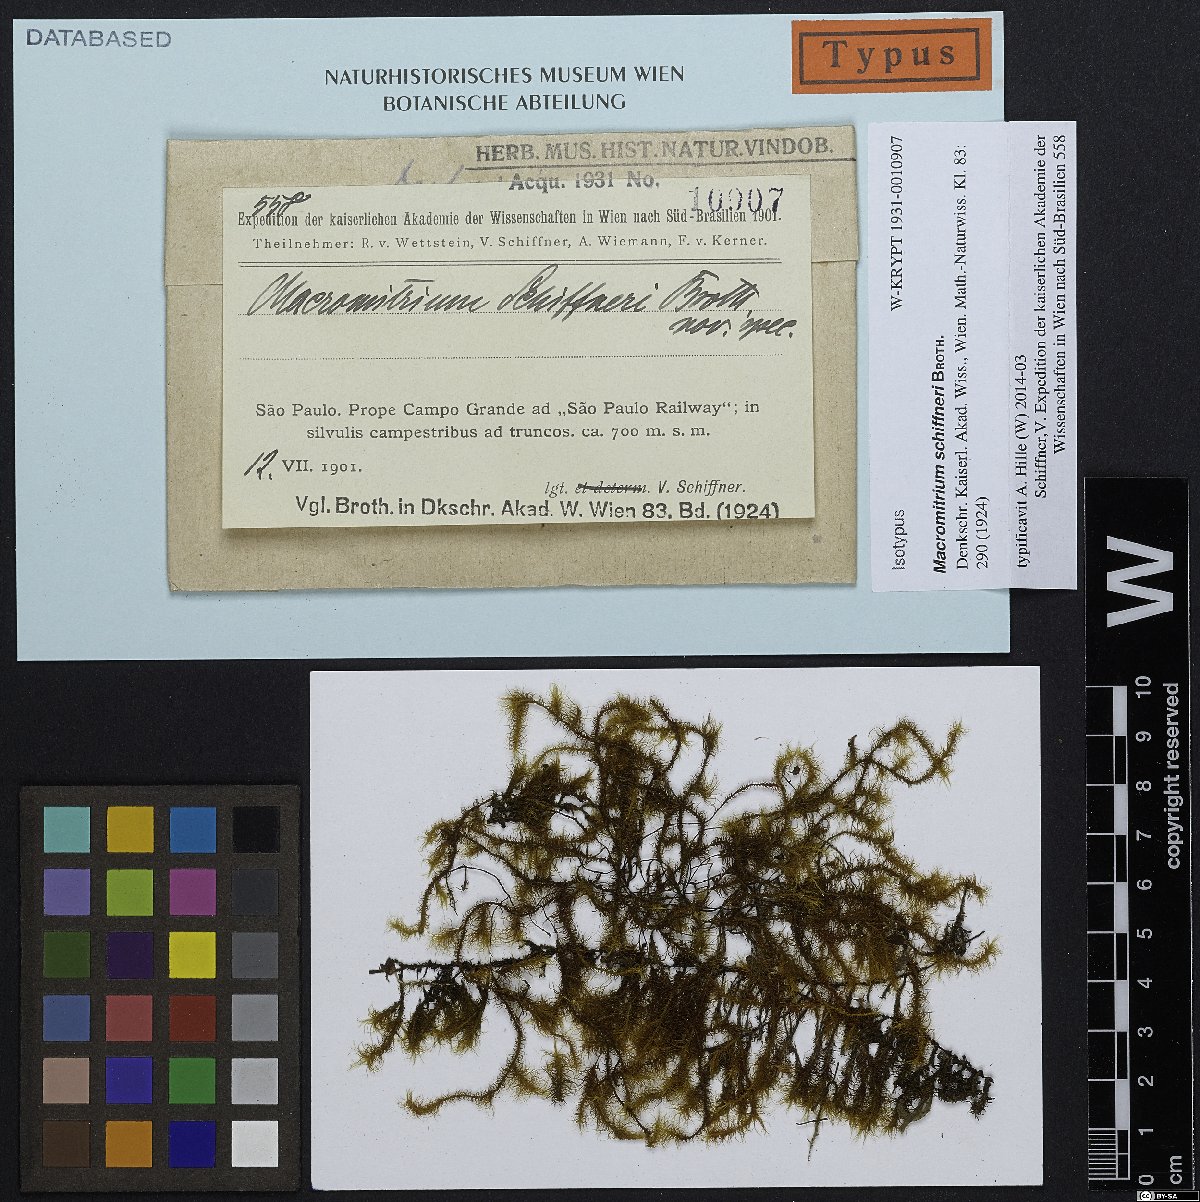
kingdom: Plantae
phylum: Bryophyta
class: Bryopsida
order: Orthotrichales
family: Orthotrichaceae
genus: Macromitrium
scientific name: Macromitrium catharinense
